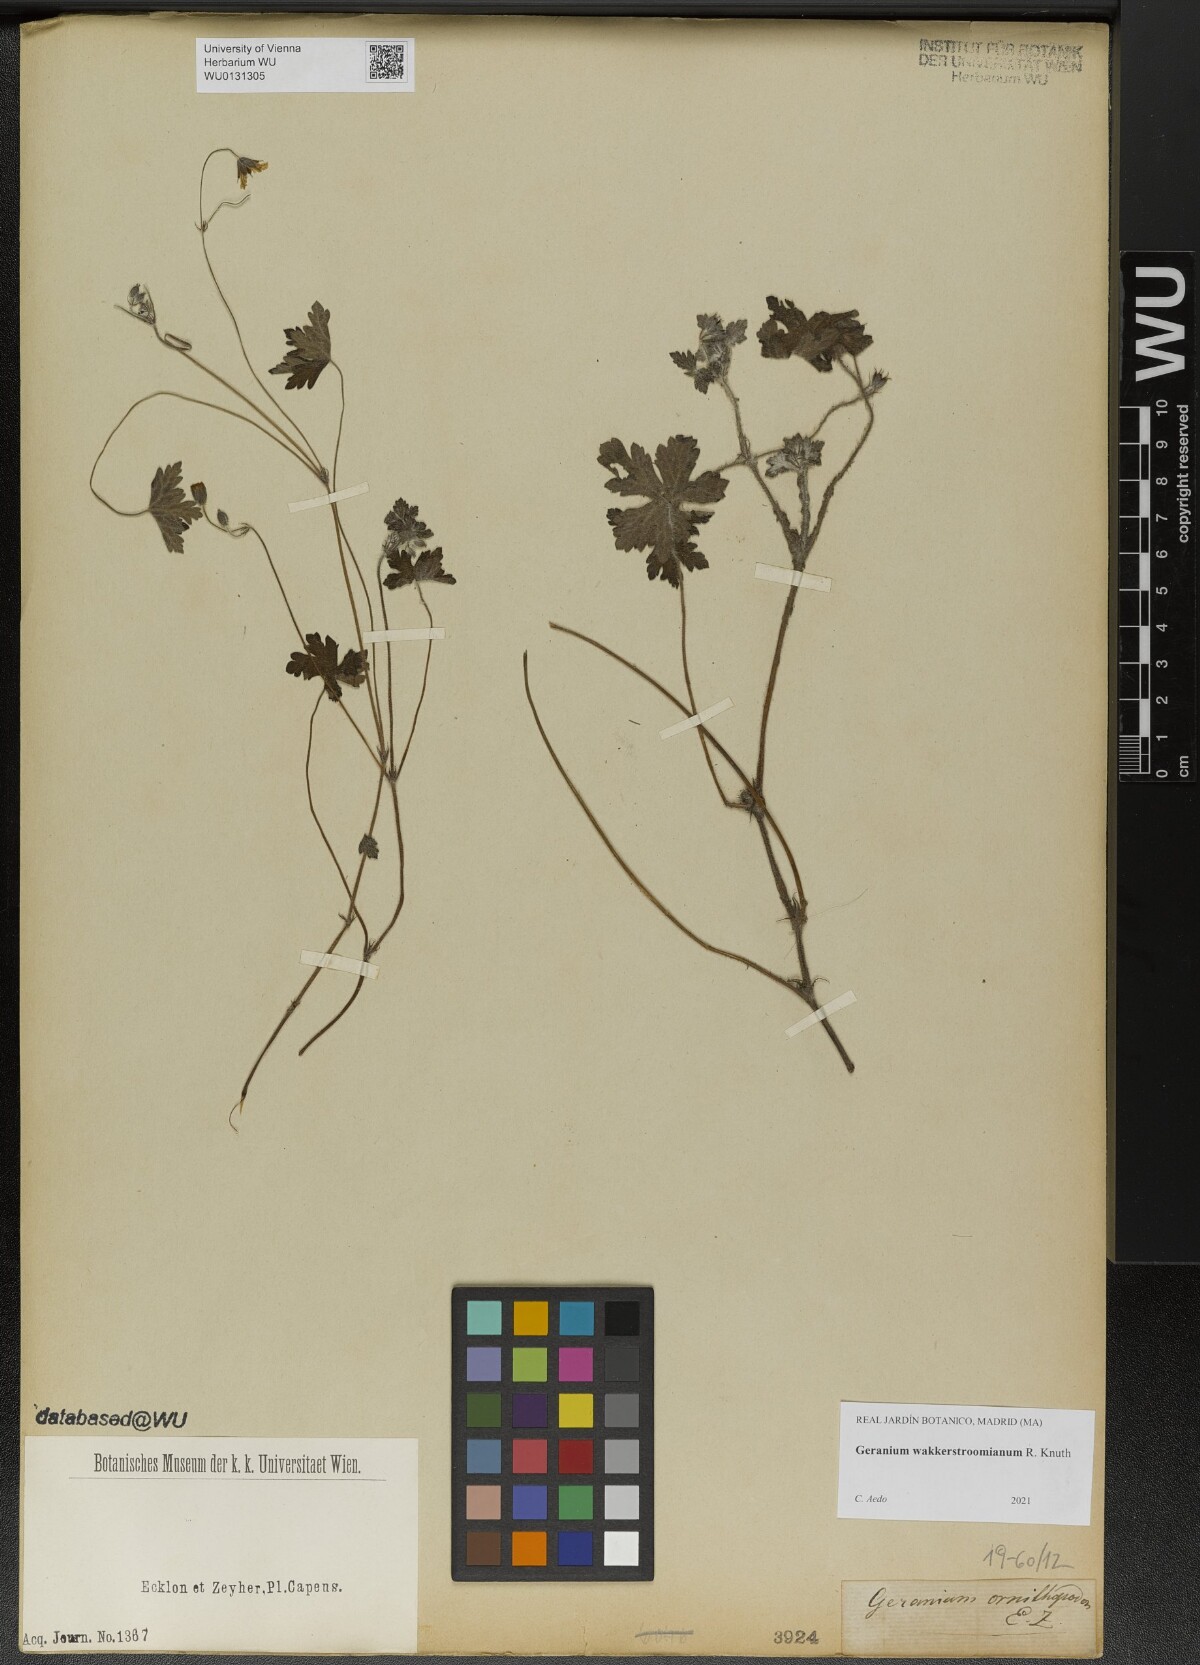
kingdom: Plantae
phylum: Tracheophyta
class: Magnoliopsida
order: Geraniales
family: Geraniaceae
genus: Geranium
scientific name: Geranium wakkerstroomianum
